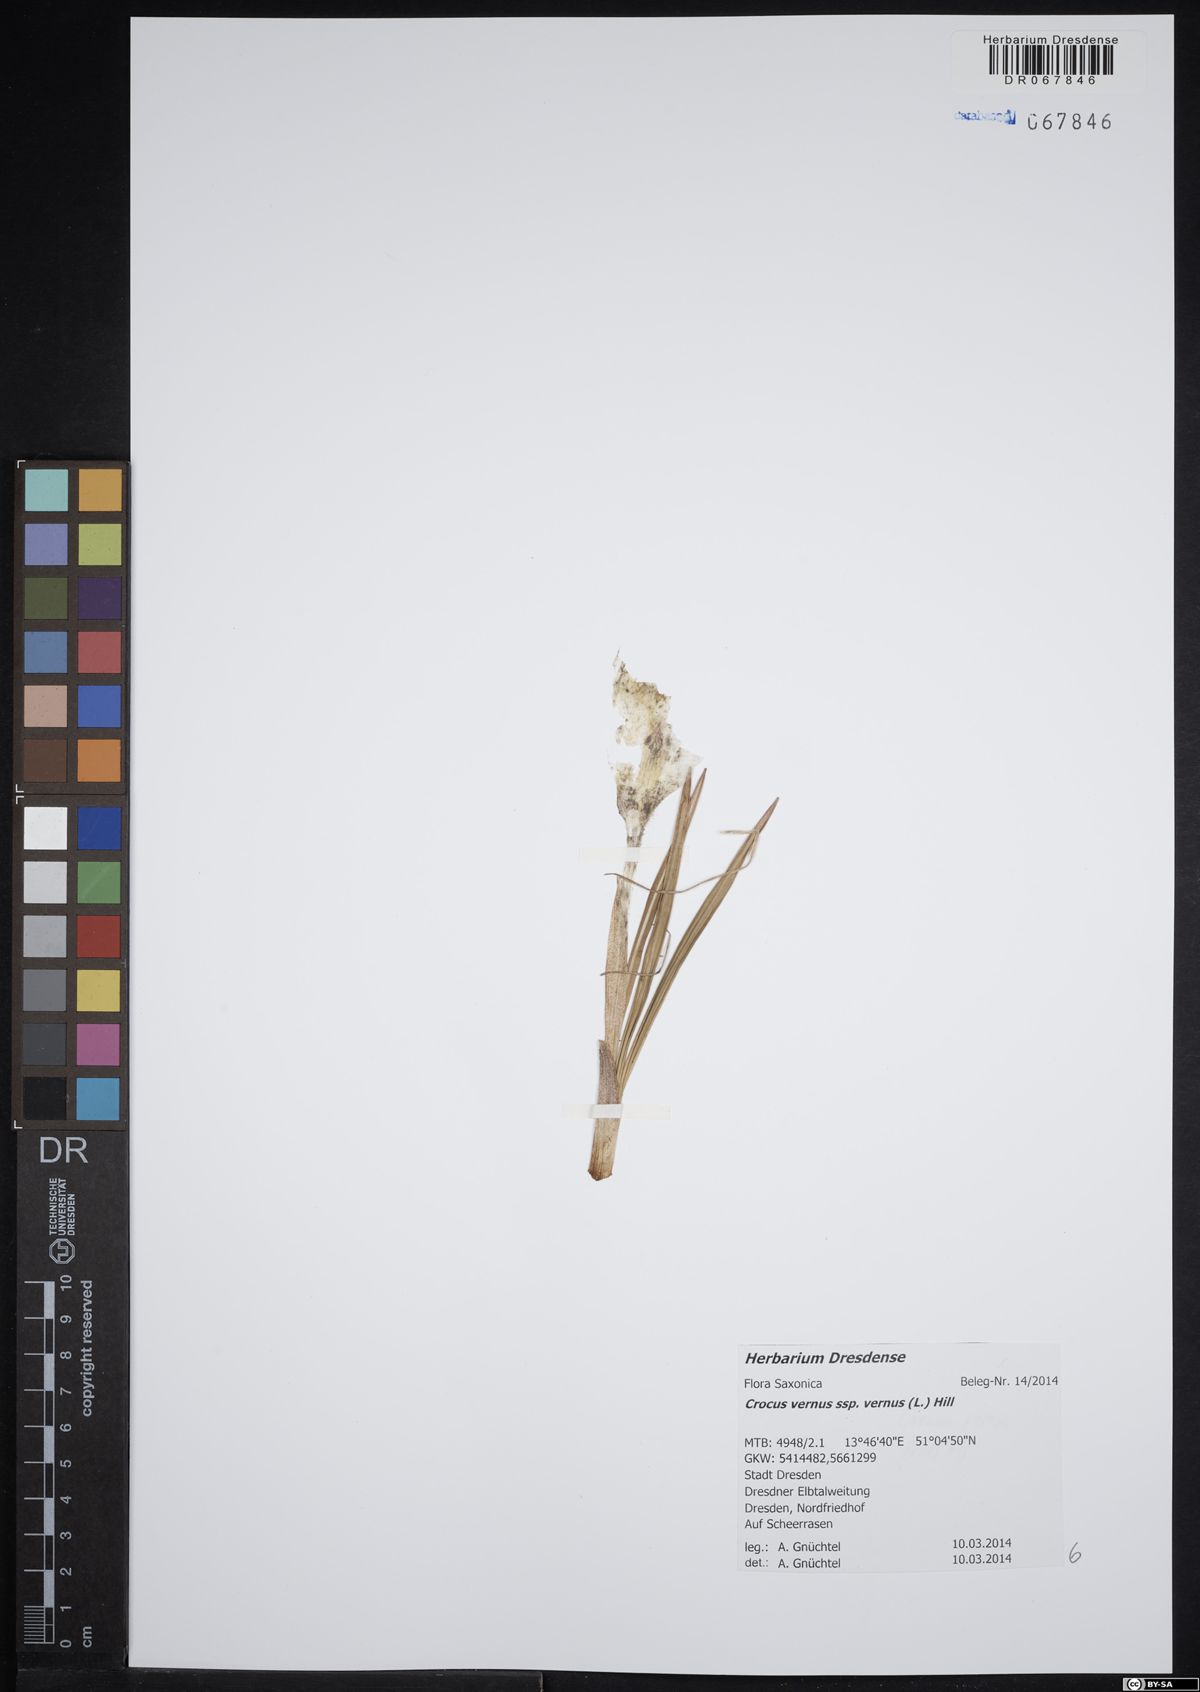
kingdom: Plantae
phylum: Tracheophyta
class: Liliopsida
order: Asparagales
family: Iridaceae
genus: Crocus
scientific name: Crocus vernus
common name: Spring crocus
